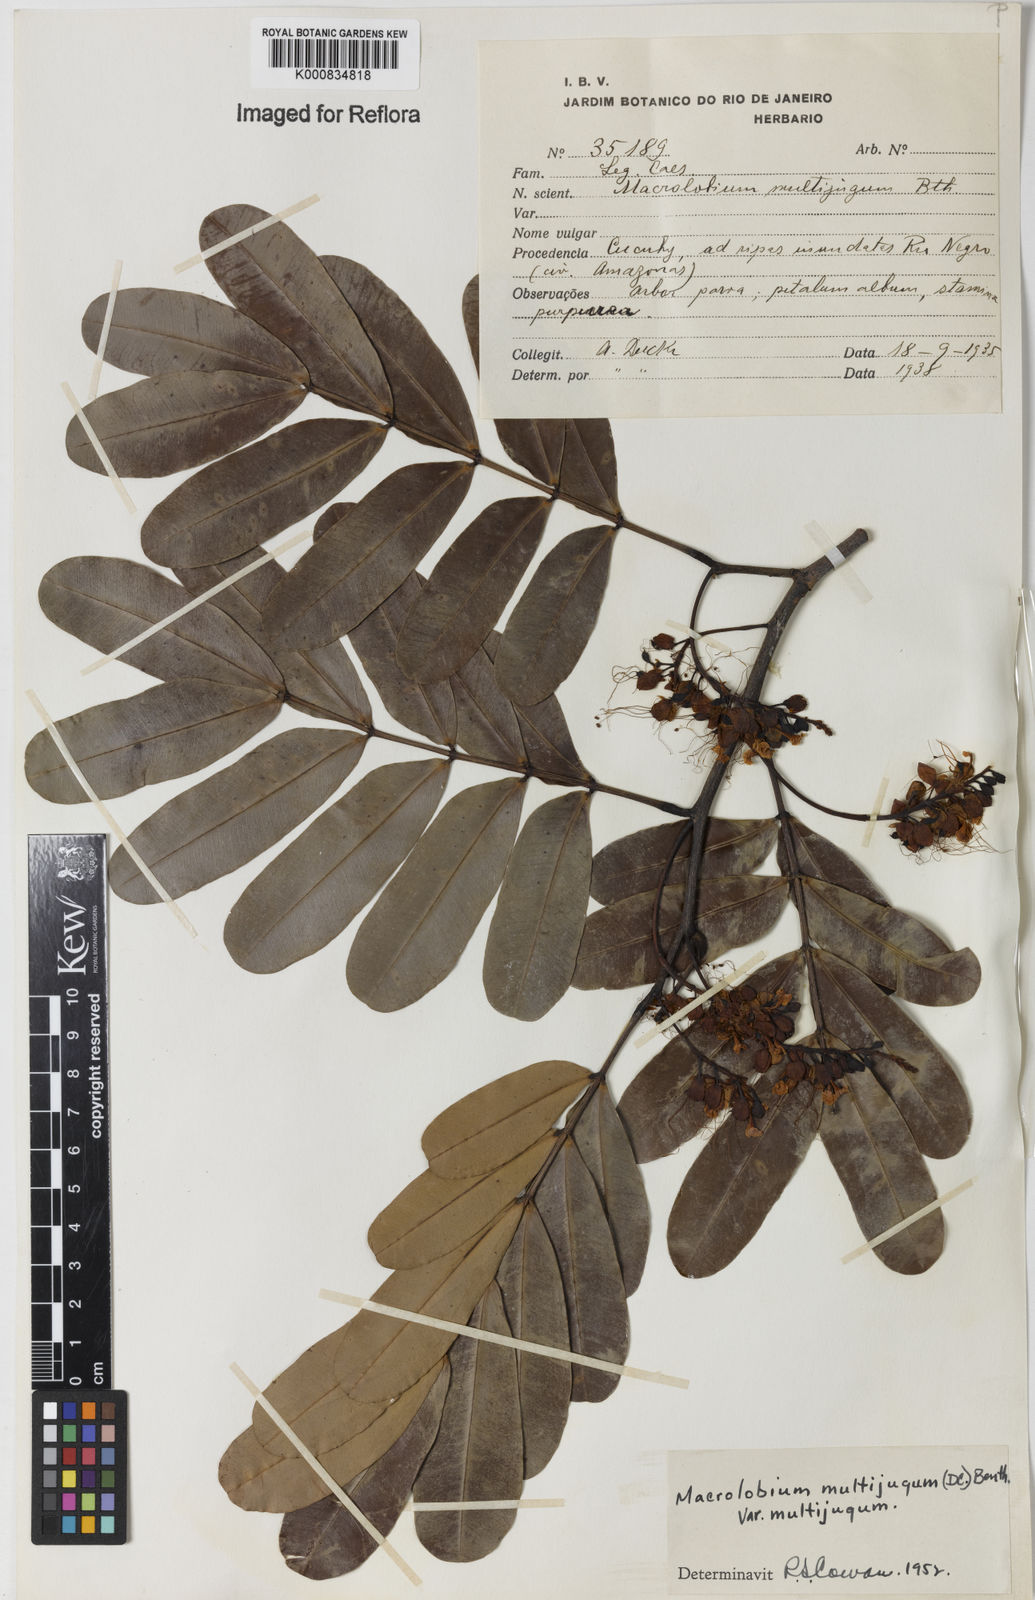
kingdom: Plantae
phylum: Tracheophyta
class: Magnoliopsida
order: Fabales
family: Fabaceae
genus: Macrolobium
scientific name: Macrolobium multijugum
